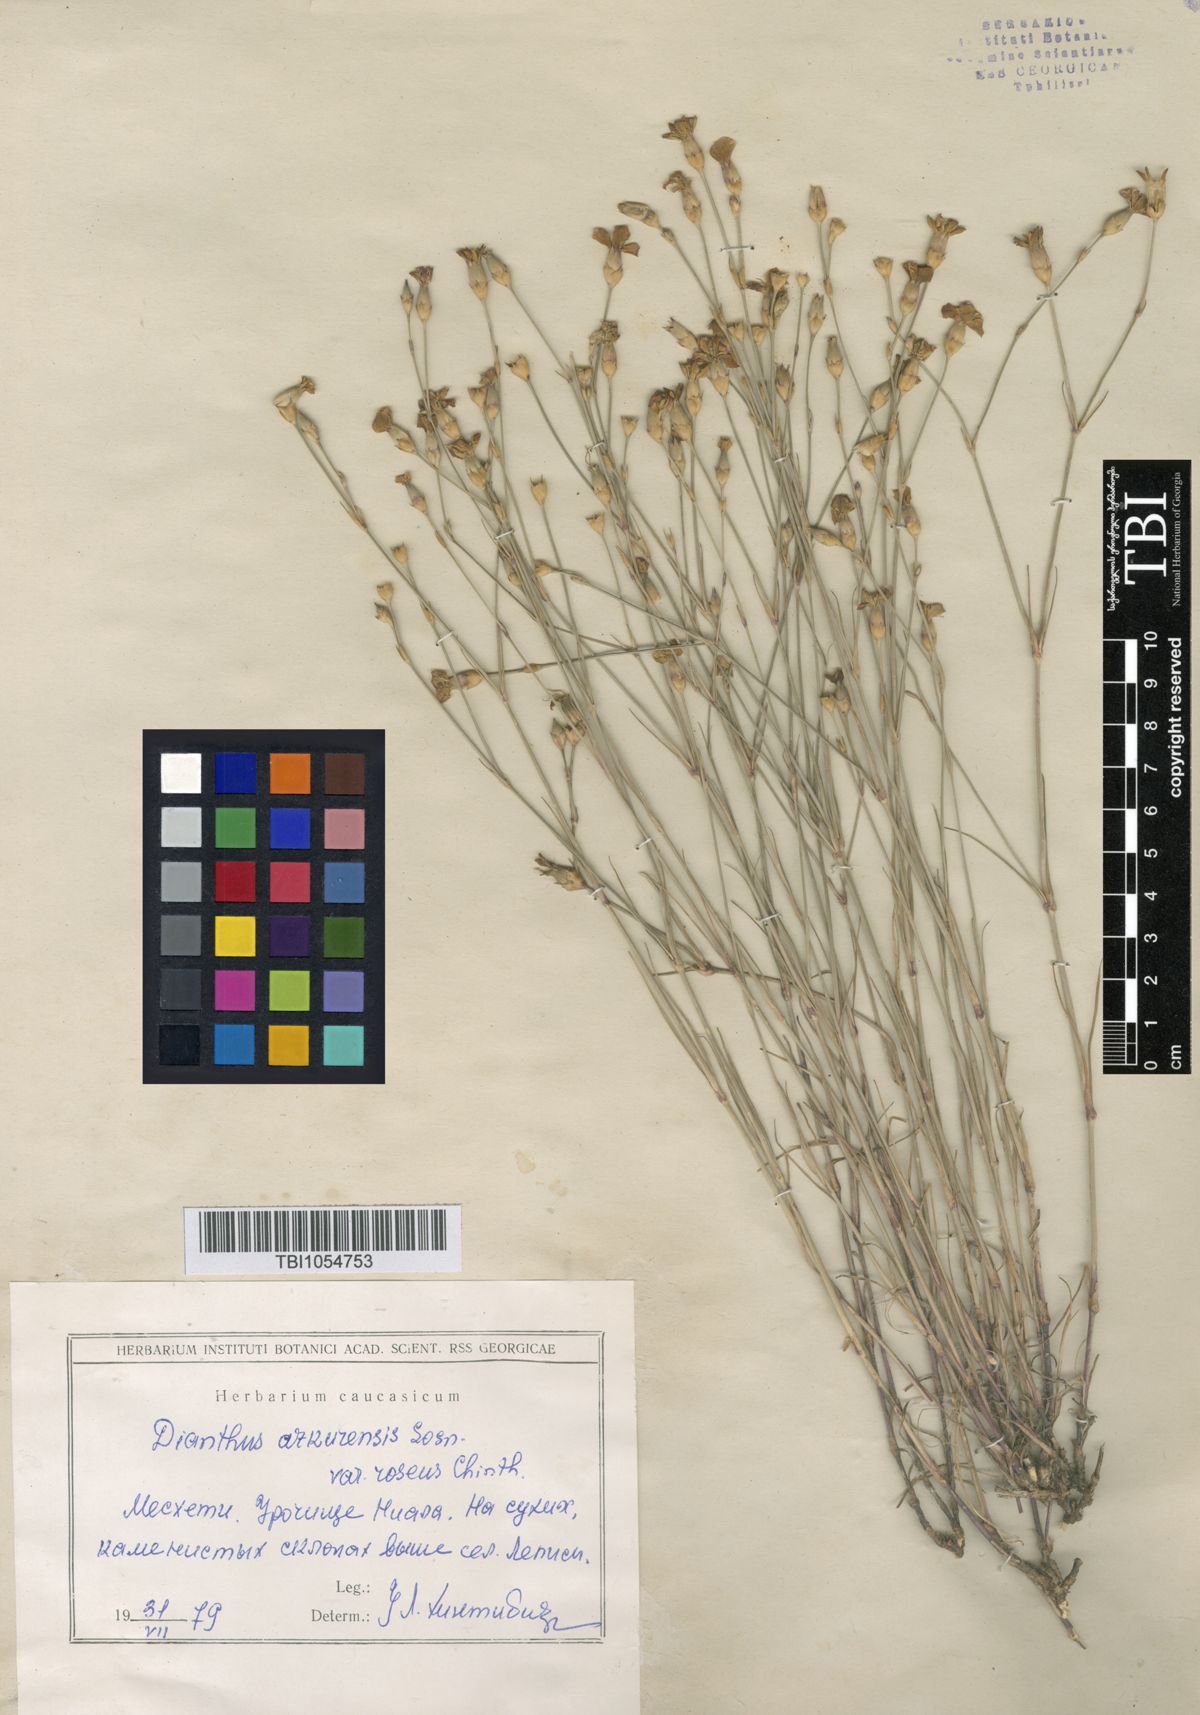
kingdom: Plantae
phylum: Tracheophyta
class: Magnoliopsida
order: Caryophyllales
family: Caryophyllaceae
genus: Dianthus
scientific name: Dianthus
